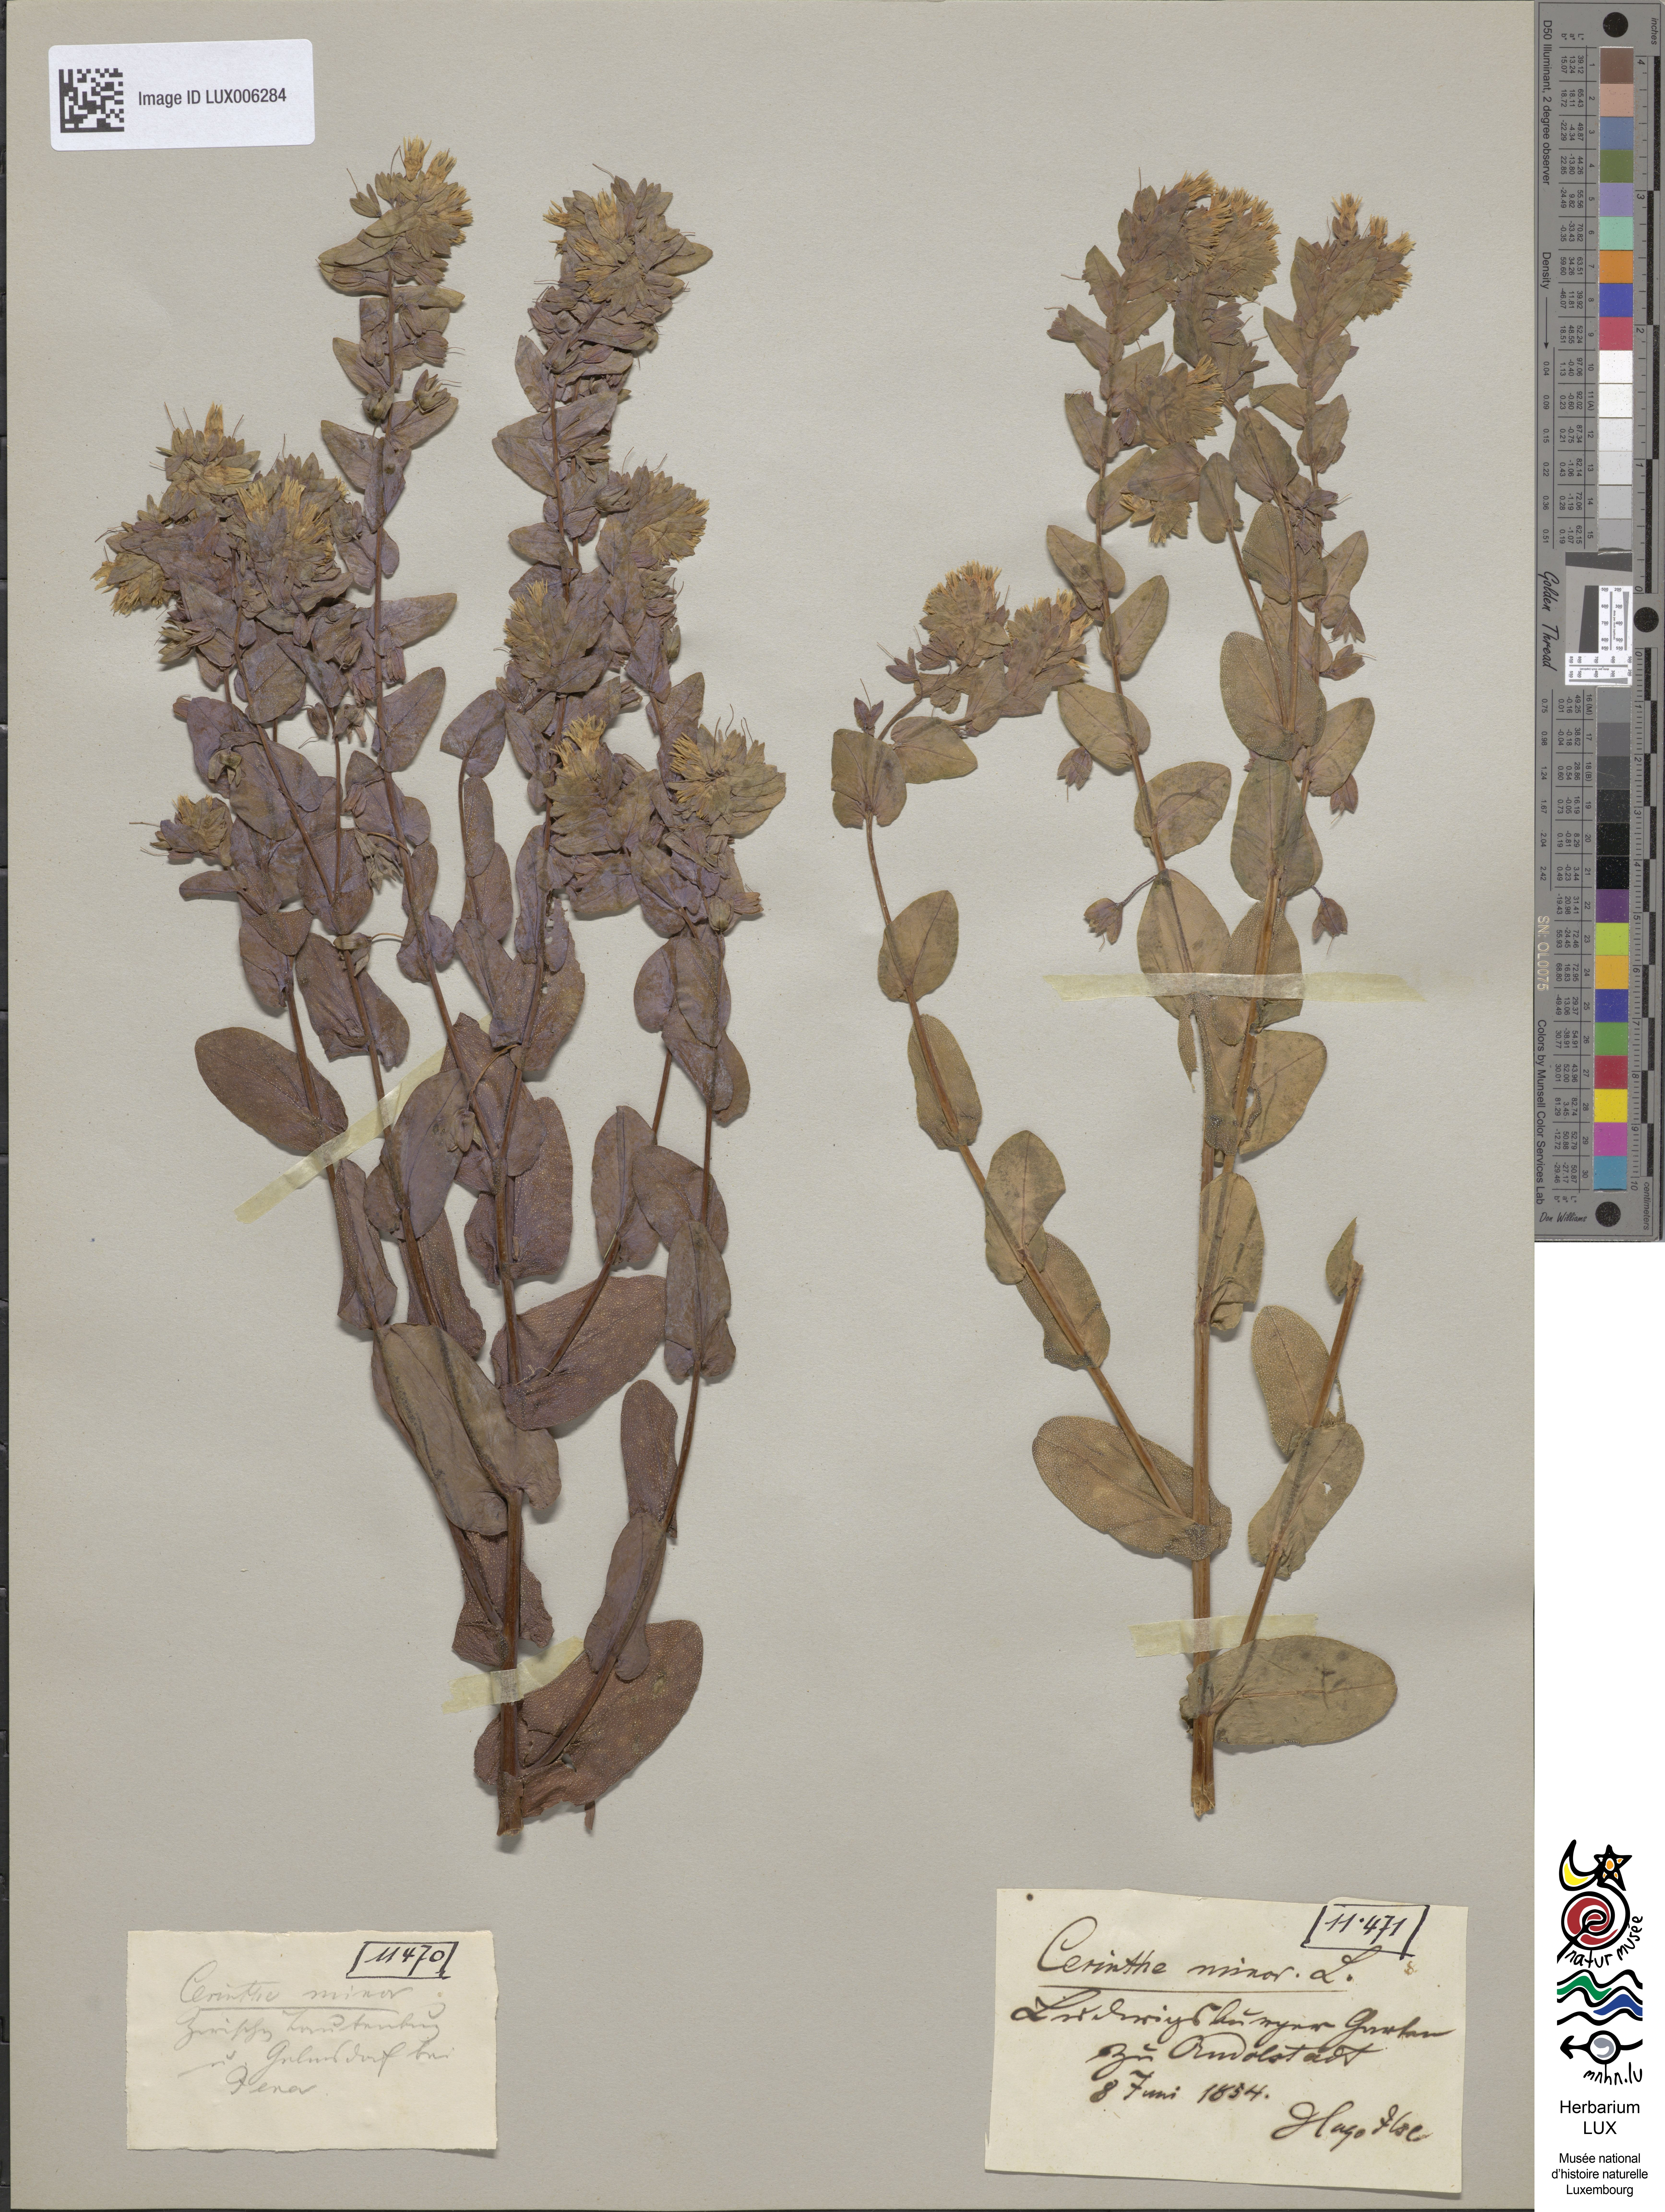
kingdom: Plantae
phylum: Tracheophyta
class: Magnoliopsida
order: Boraginales
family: Boraginaceae
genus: Cerinthe
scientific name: Cerinthe minor
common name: Lesser honeywort
